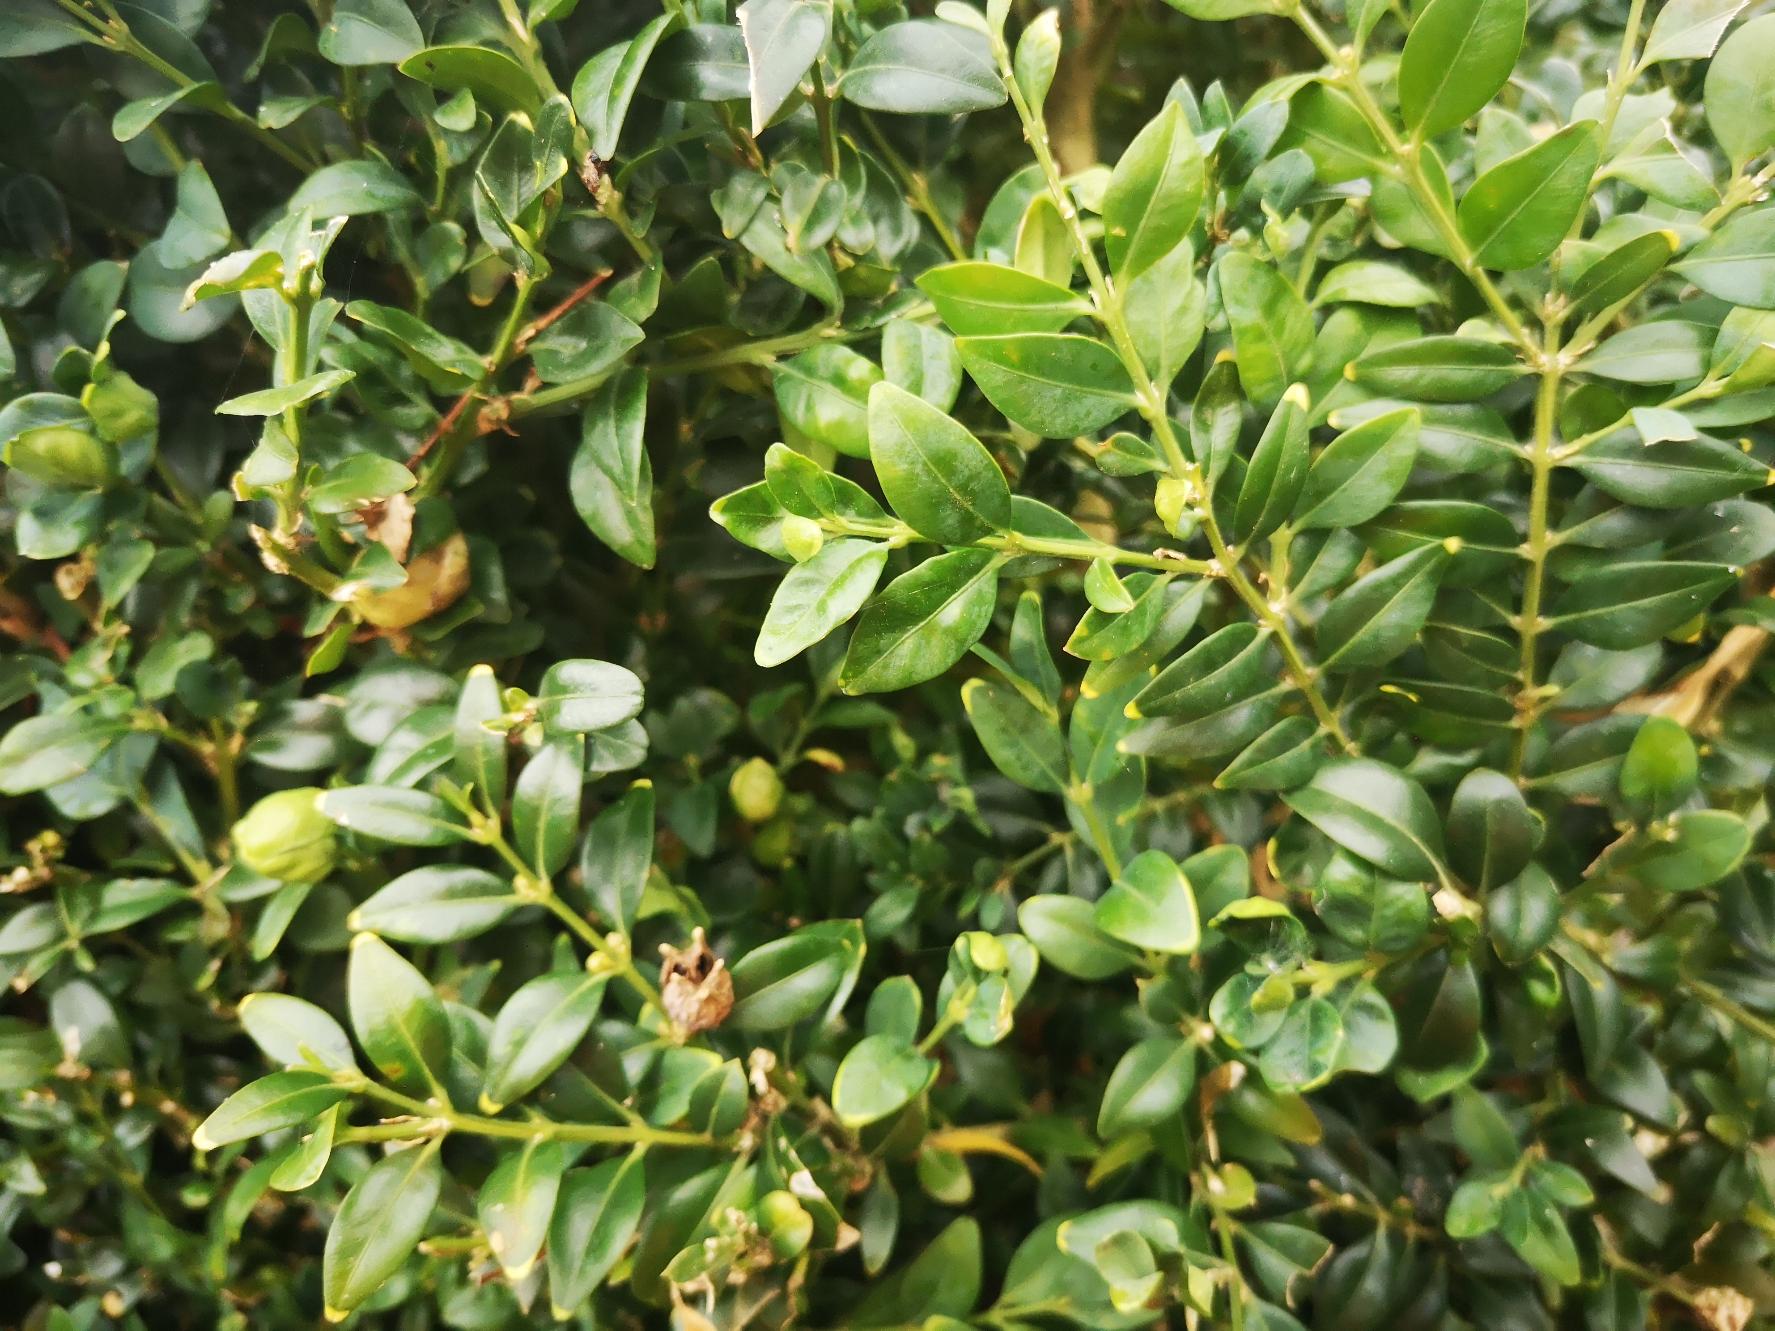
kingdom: Plantae
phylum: Tracheophyta
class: Magnoliopsida
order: Buxales
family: Buxaceae
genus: Buxus
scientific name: Buxus sempervirens
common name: Almindelig buksbom
